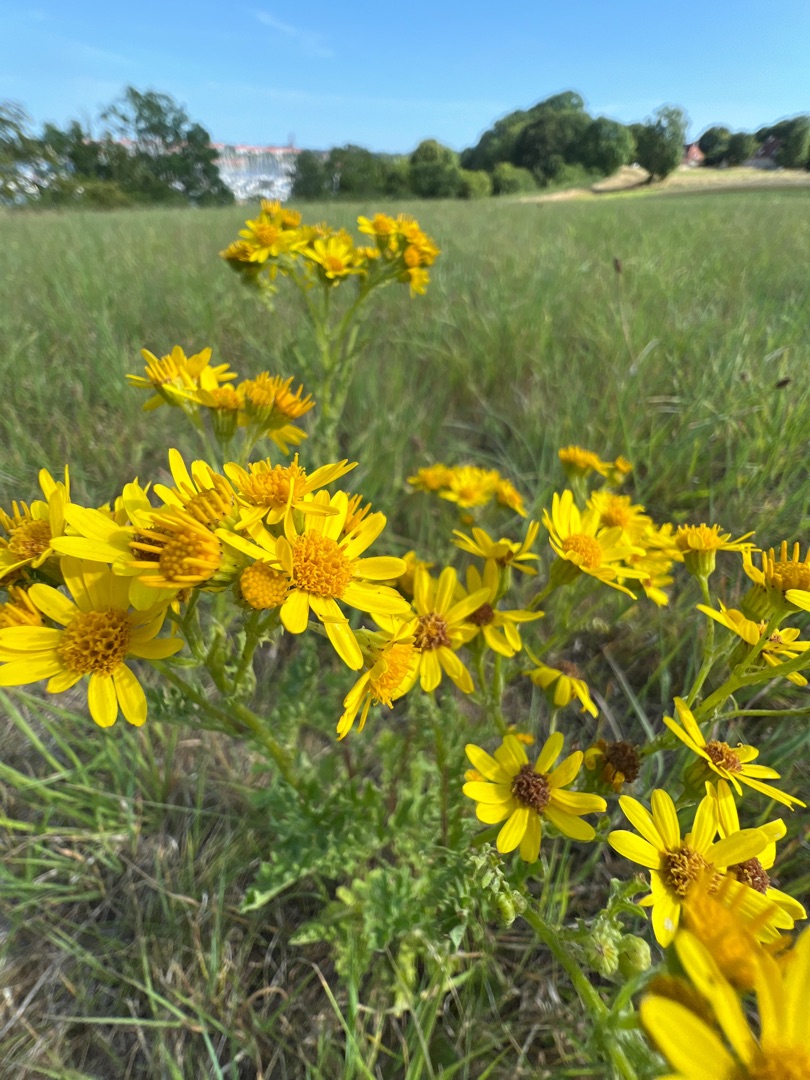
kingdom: Plantae
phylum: Tracheophyta
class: Magnoliopsida
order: Asterales
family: Asteraceae
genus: Jacobaea
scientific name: Jacobaea vulgaris
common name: Eng-brandbæger
